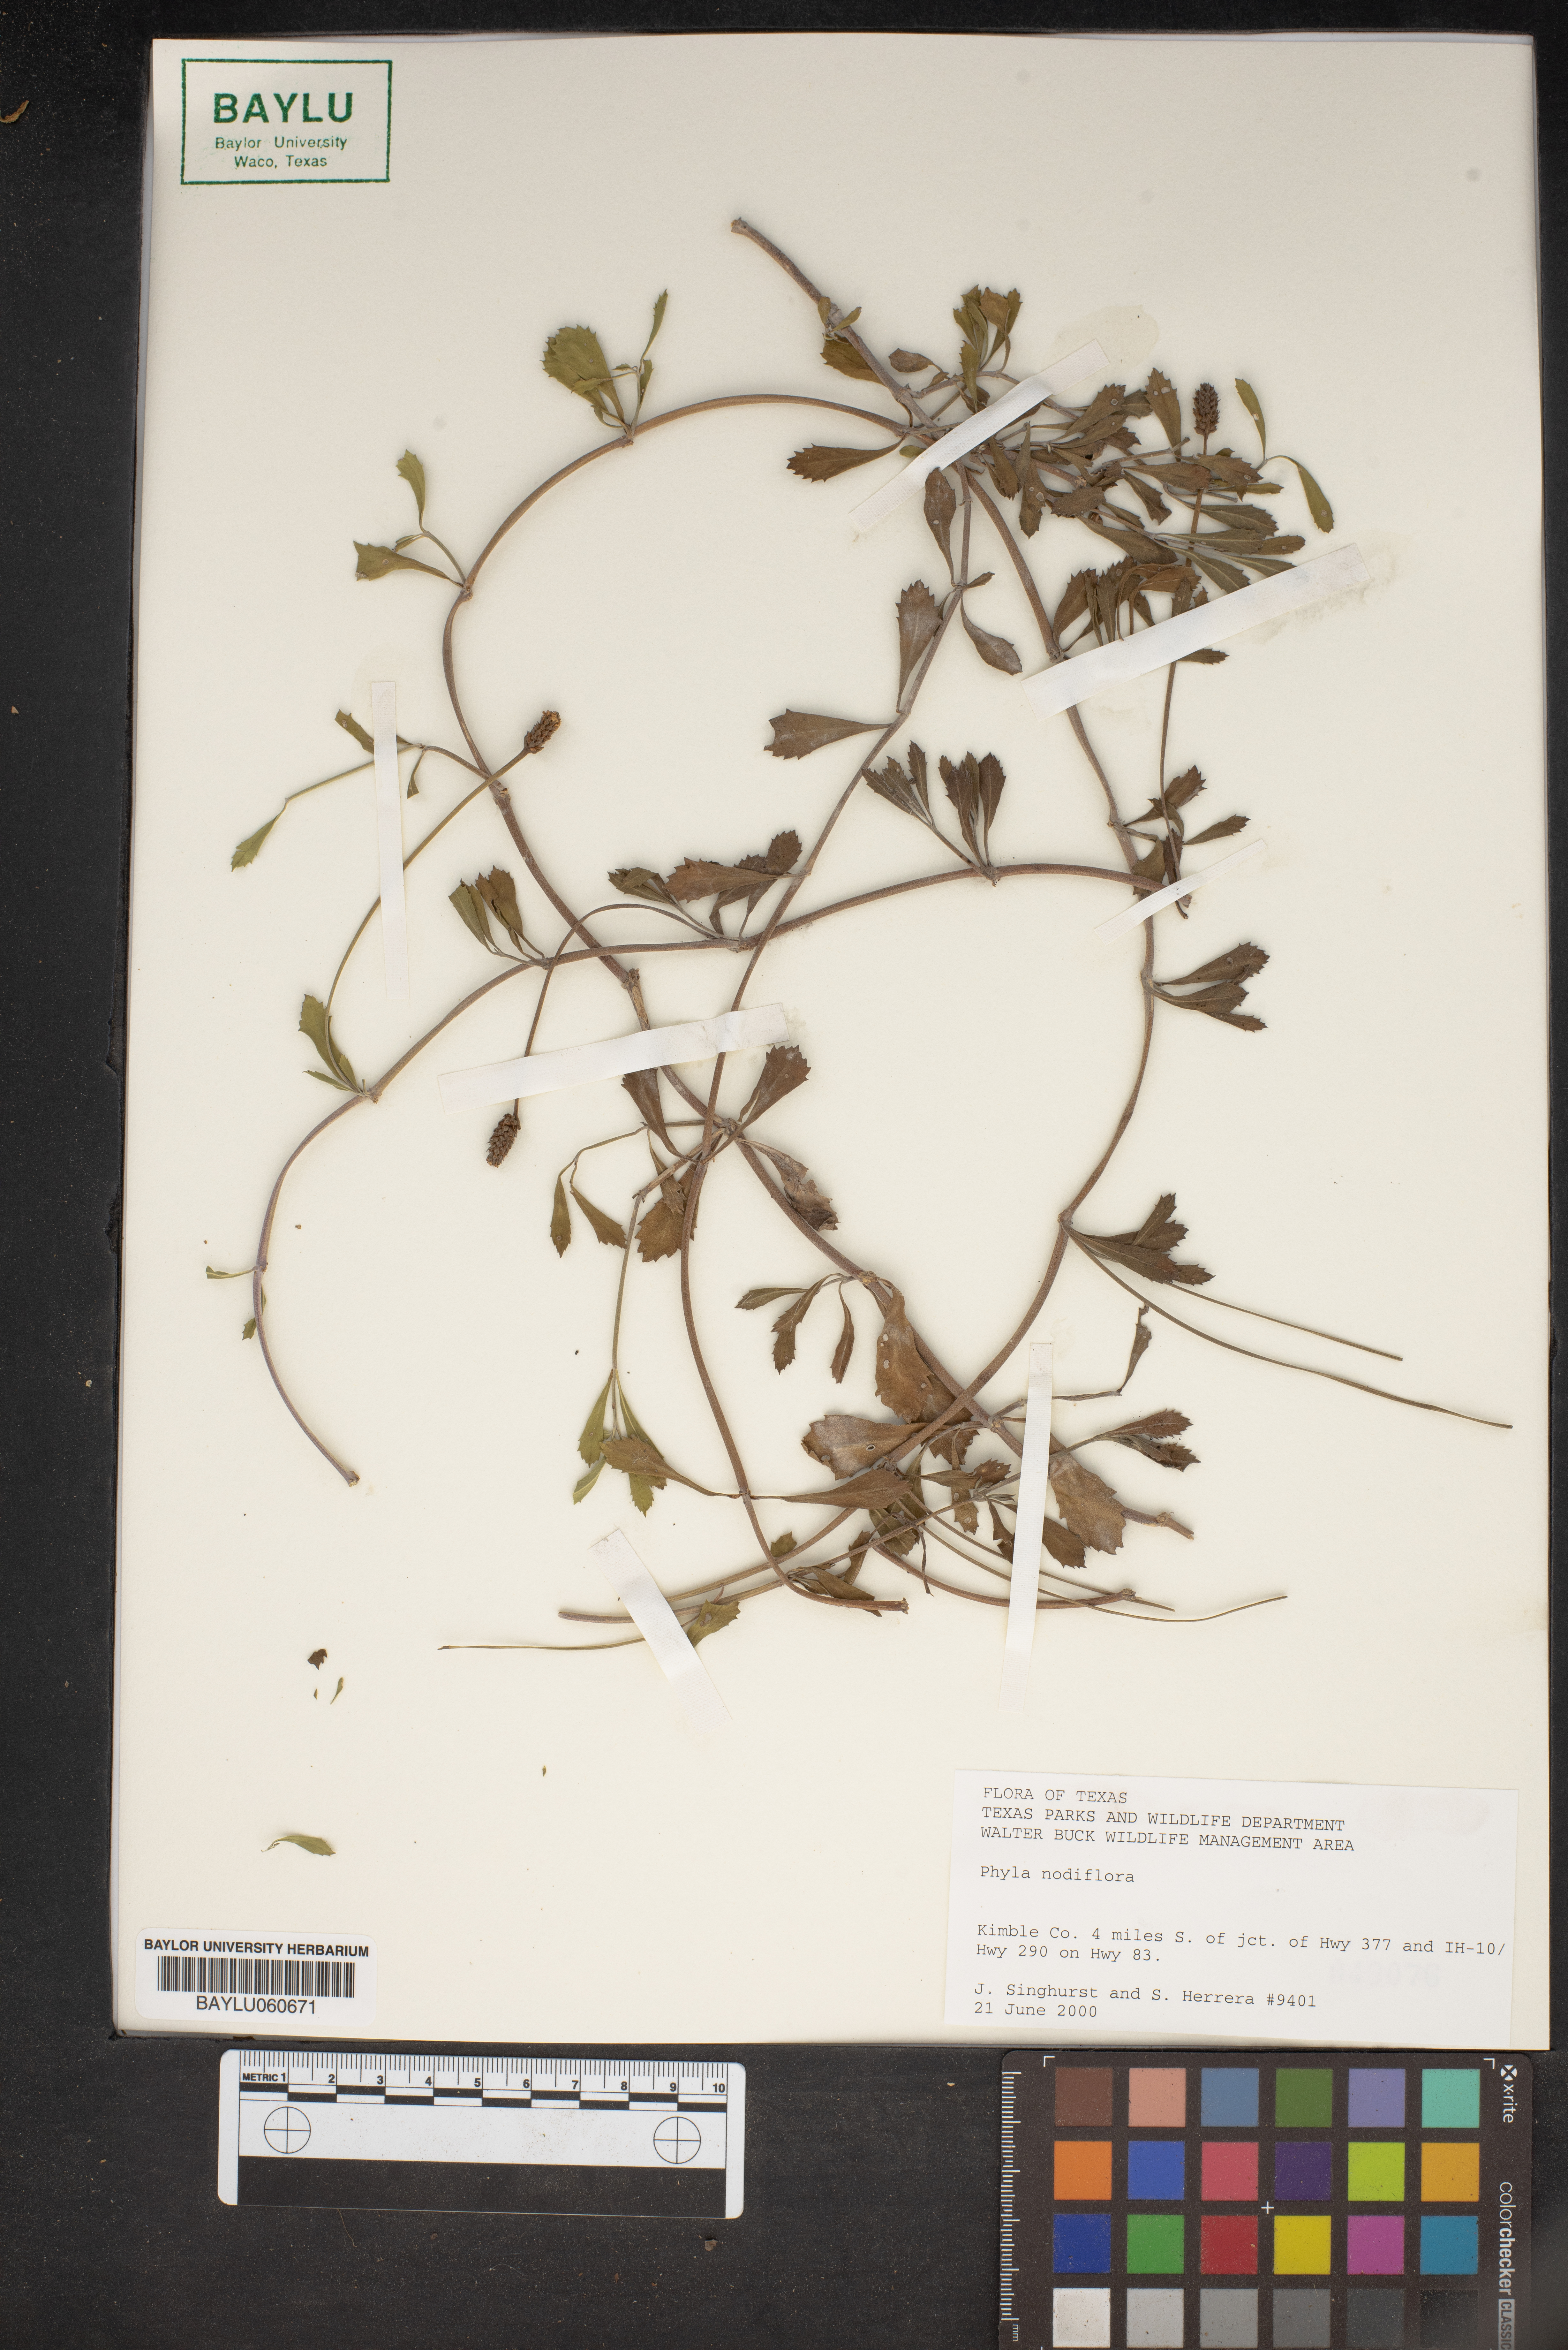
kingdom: Plantae
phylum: Tracheophyta
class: Magnoliopsida
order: Lamiales
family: Verbenaceae
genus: Phyla
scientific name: Phyla nodiflora
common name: Frogfruit
